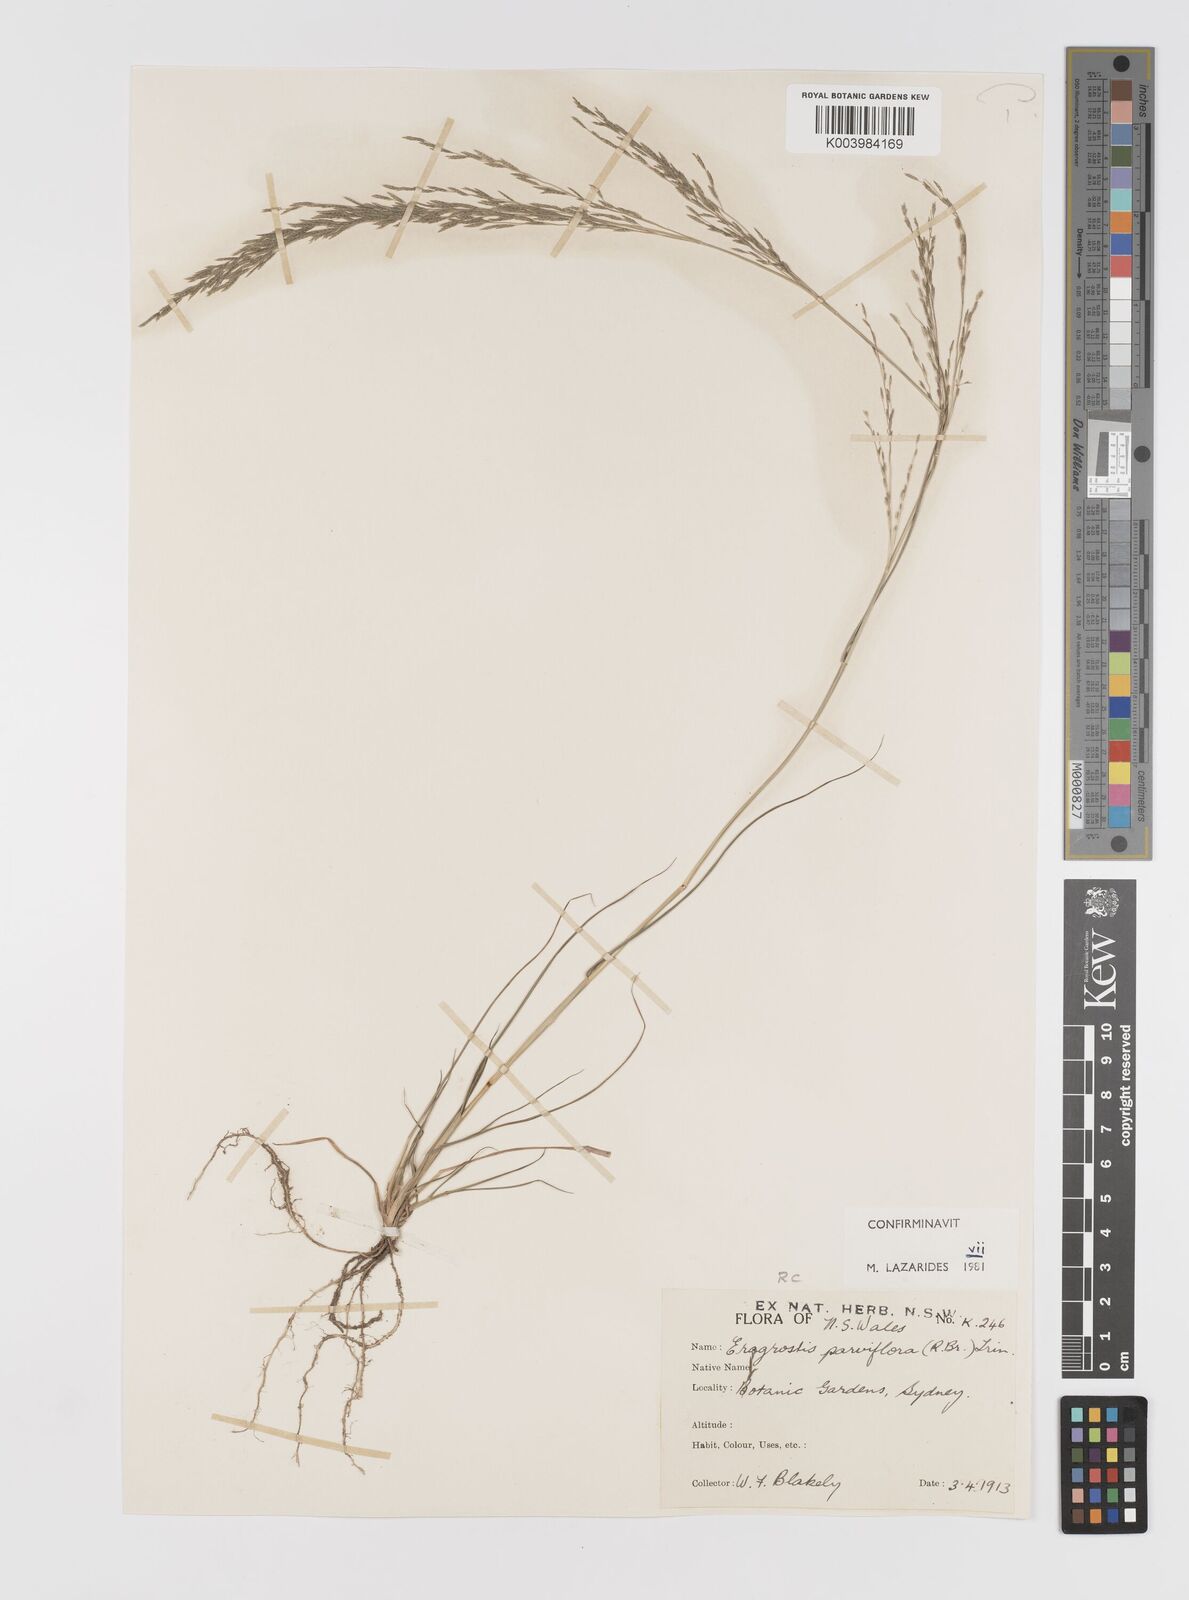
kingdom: Plantae
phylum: Tracheophyta
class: Liliopsida
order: Poales
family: Poaceae
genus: Eragrostis
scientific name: Eragrostis parviflora
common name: Weeping love-grass
